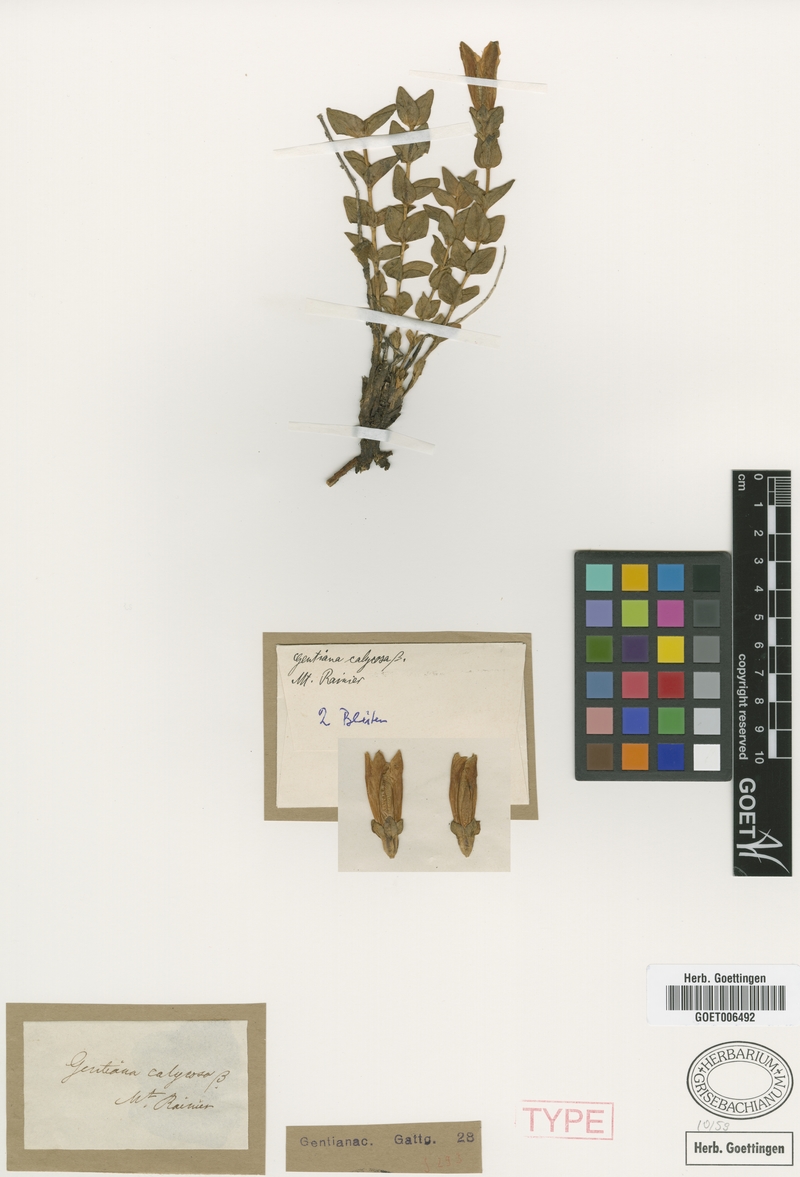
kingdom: Plantae
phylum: Tracheophyta
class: Magnoliopsida
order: Gentianales
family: Gentianaceae
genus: Gentiana
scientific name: Gentiana calycosa
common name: Rainier pleated gentian
